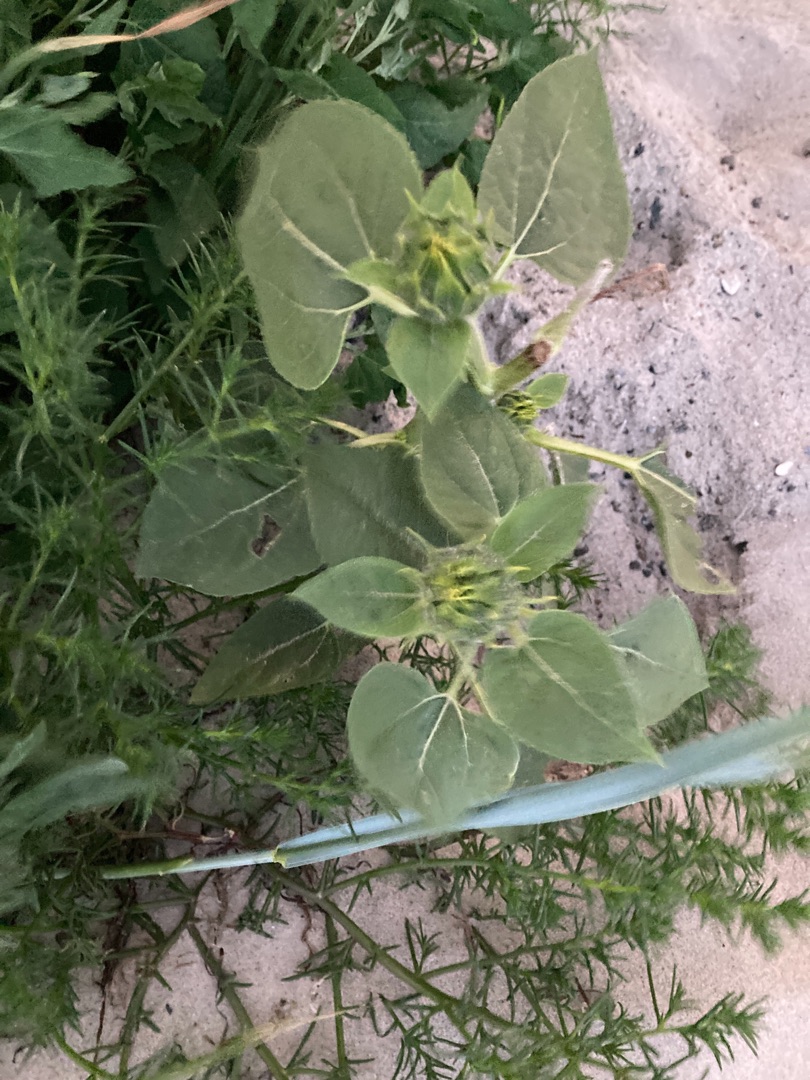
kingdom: Plantae
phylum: Tracheophyta
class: Magnoliopsida
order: Asterales
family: Asteraceae
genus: Helianthus
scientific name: Helianthus annuus
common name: Solsikke
